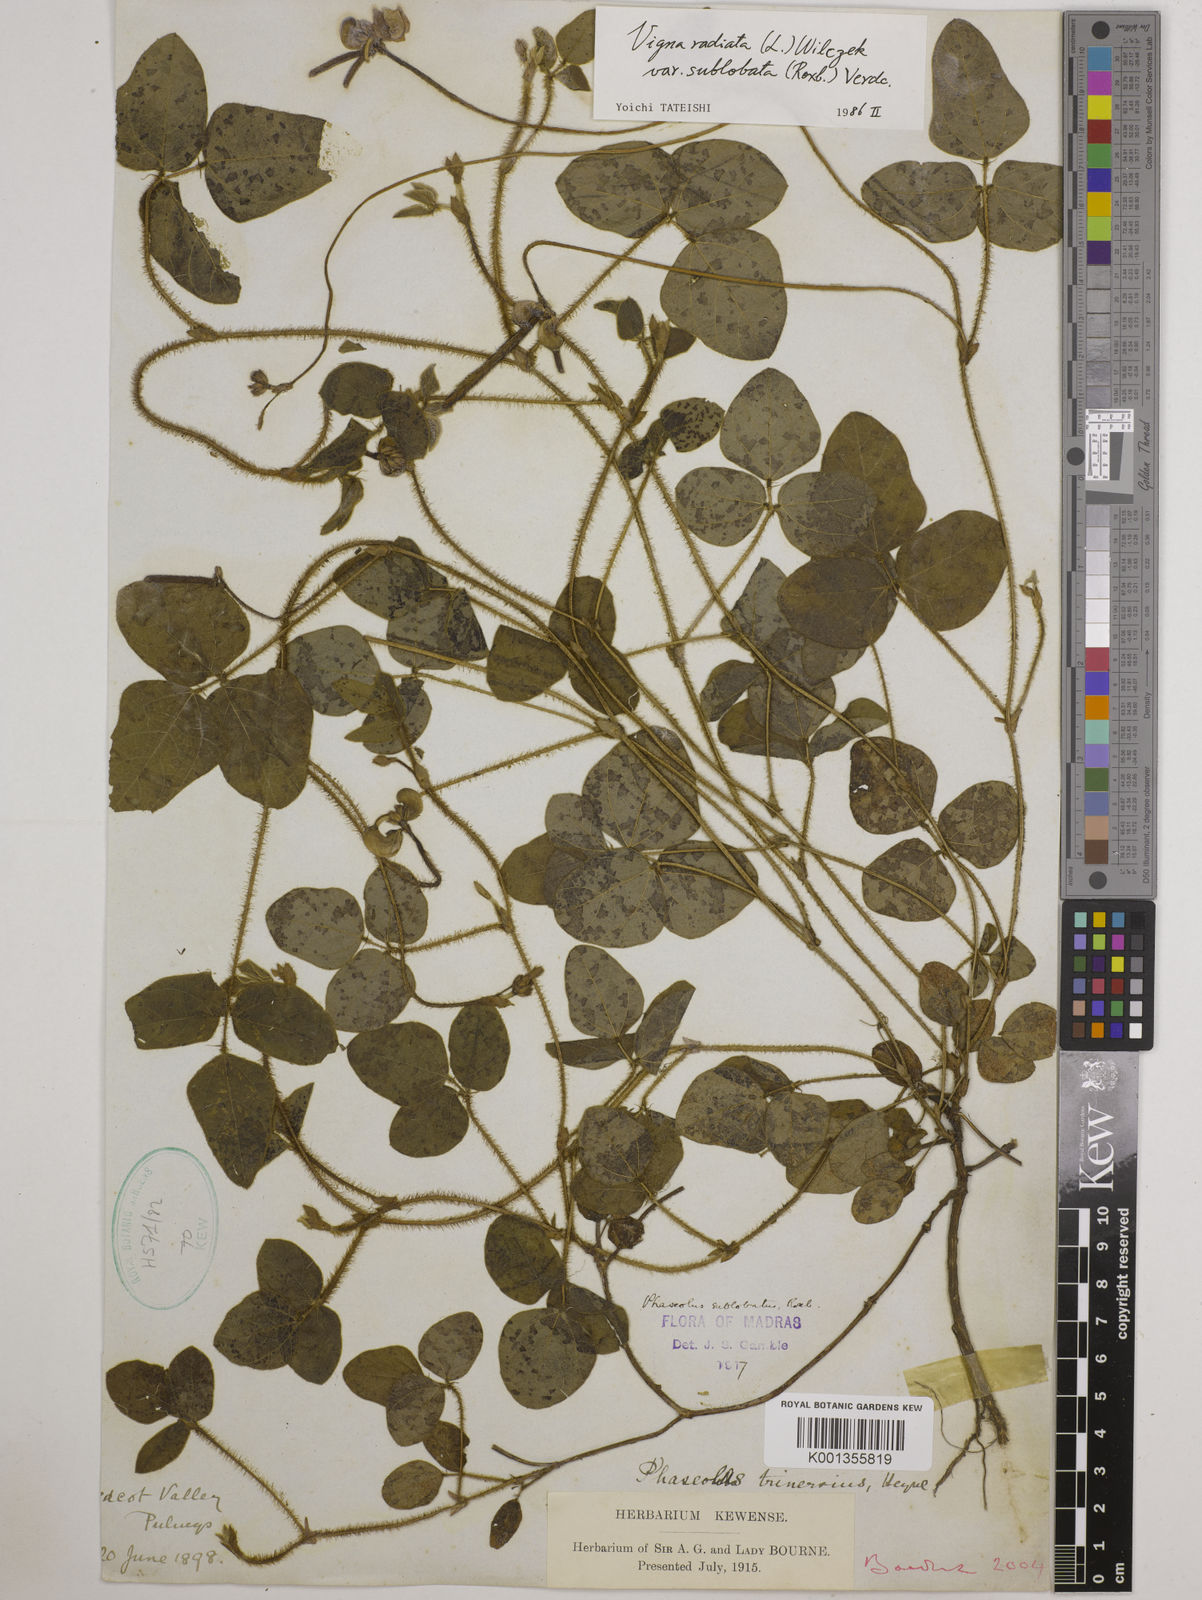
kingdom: Plantae
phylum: Tracheophyta
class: Magnoliopsida
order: Fabales
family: Fabaceae
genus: Vigna
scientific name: Vigna radiata
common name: Mung-bean
